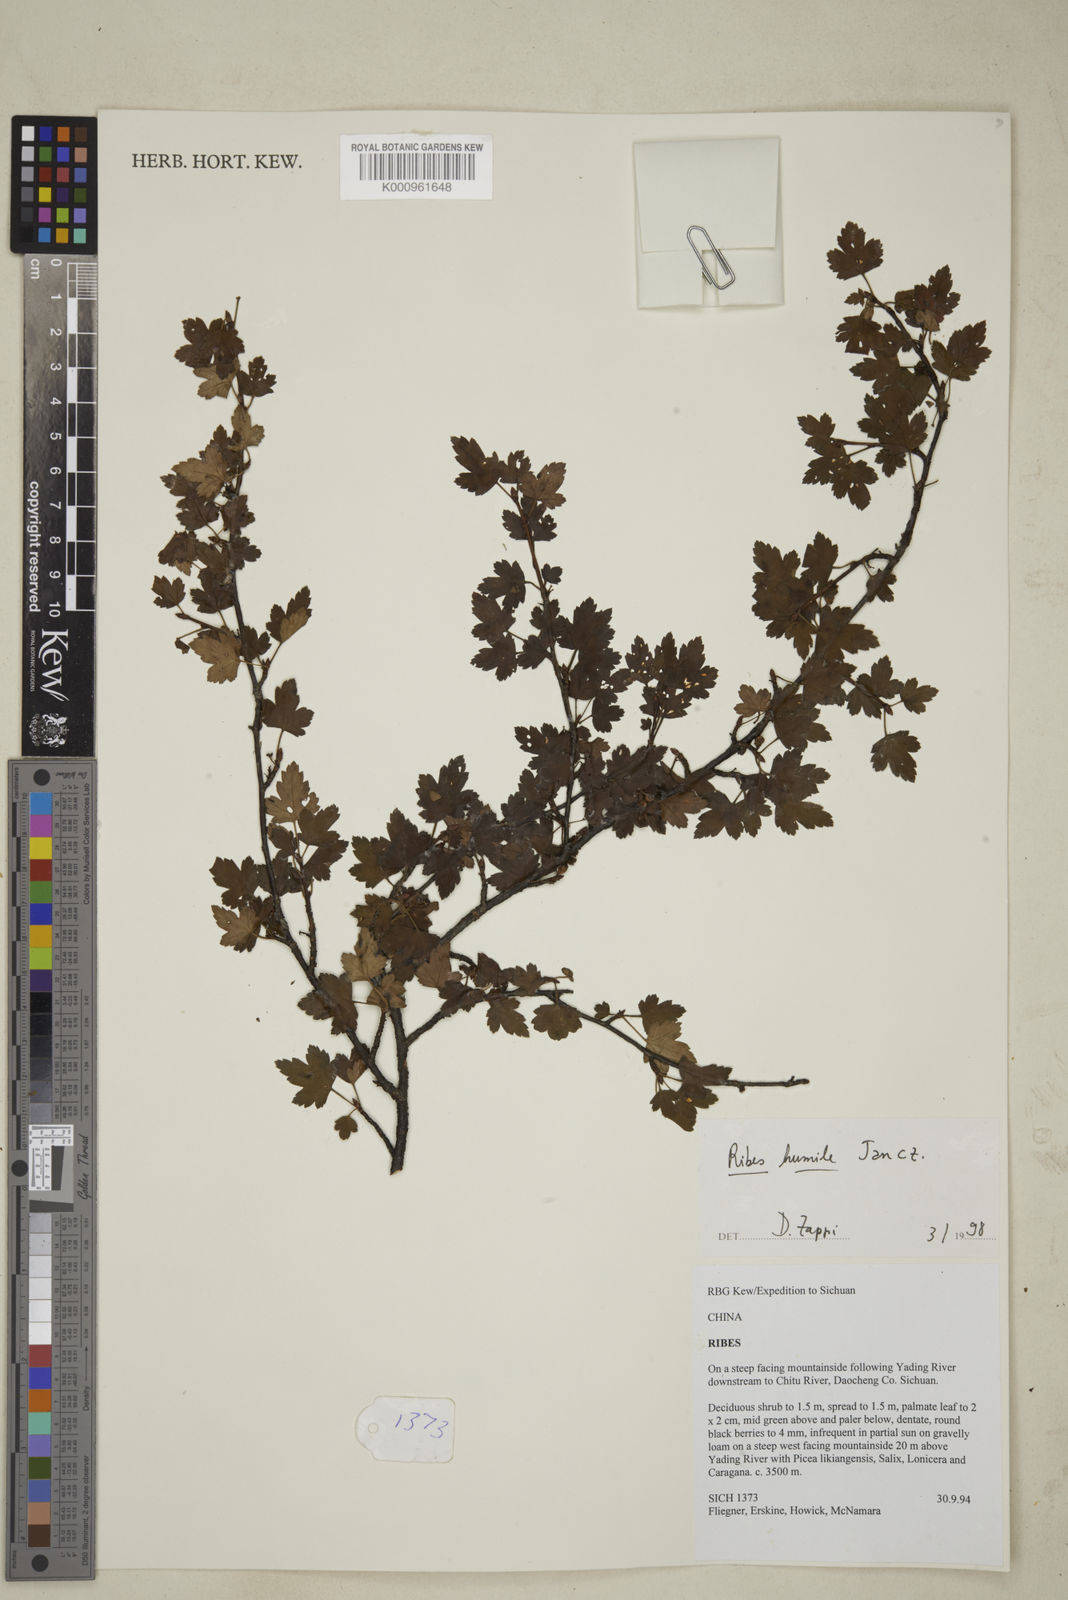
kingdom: Plantae
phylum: Tracheophyta
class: Magnoliopsida
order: Saxifragales
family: Grossulariaceae
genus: Ribes
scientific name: Ribes humile
